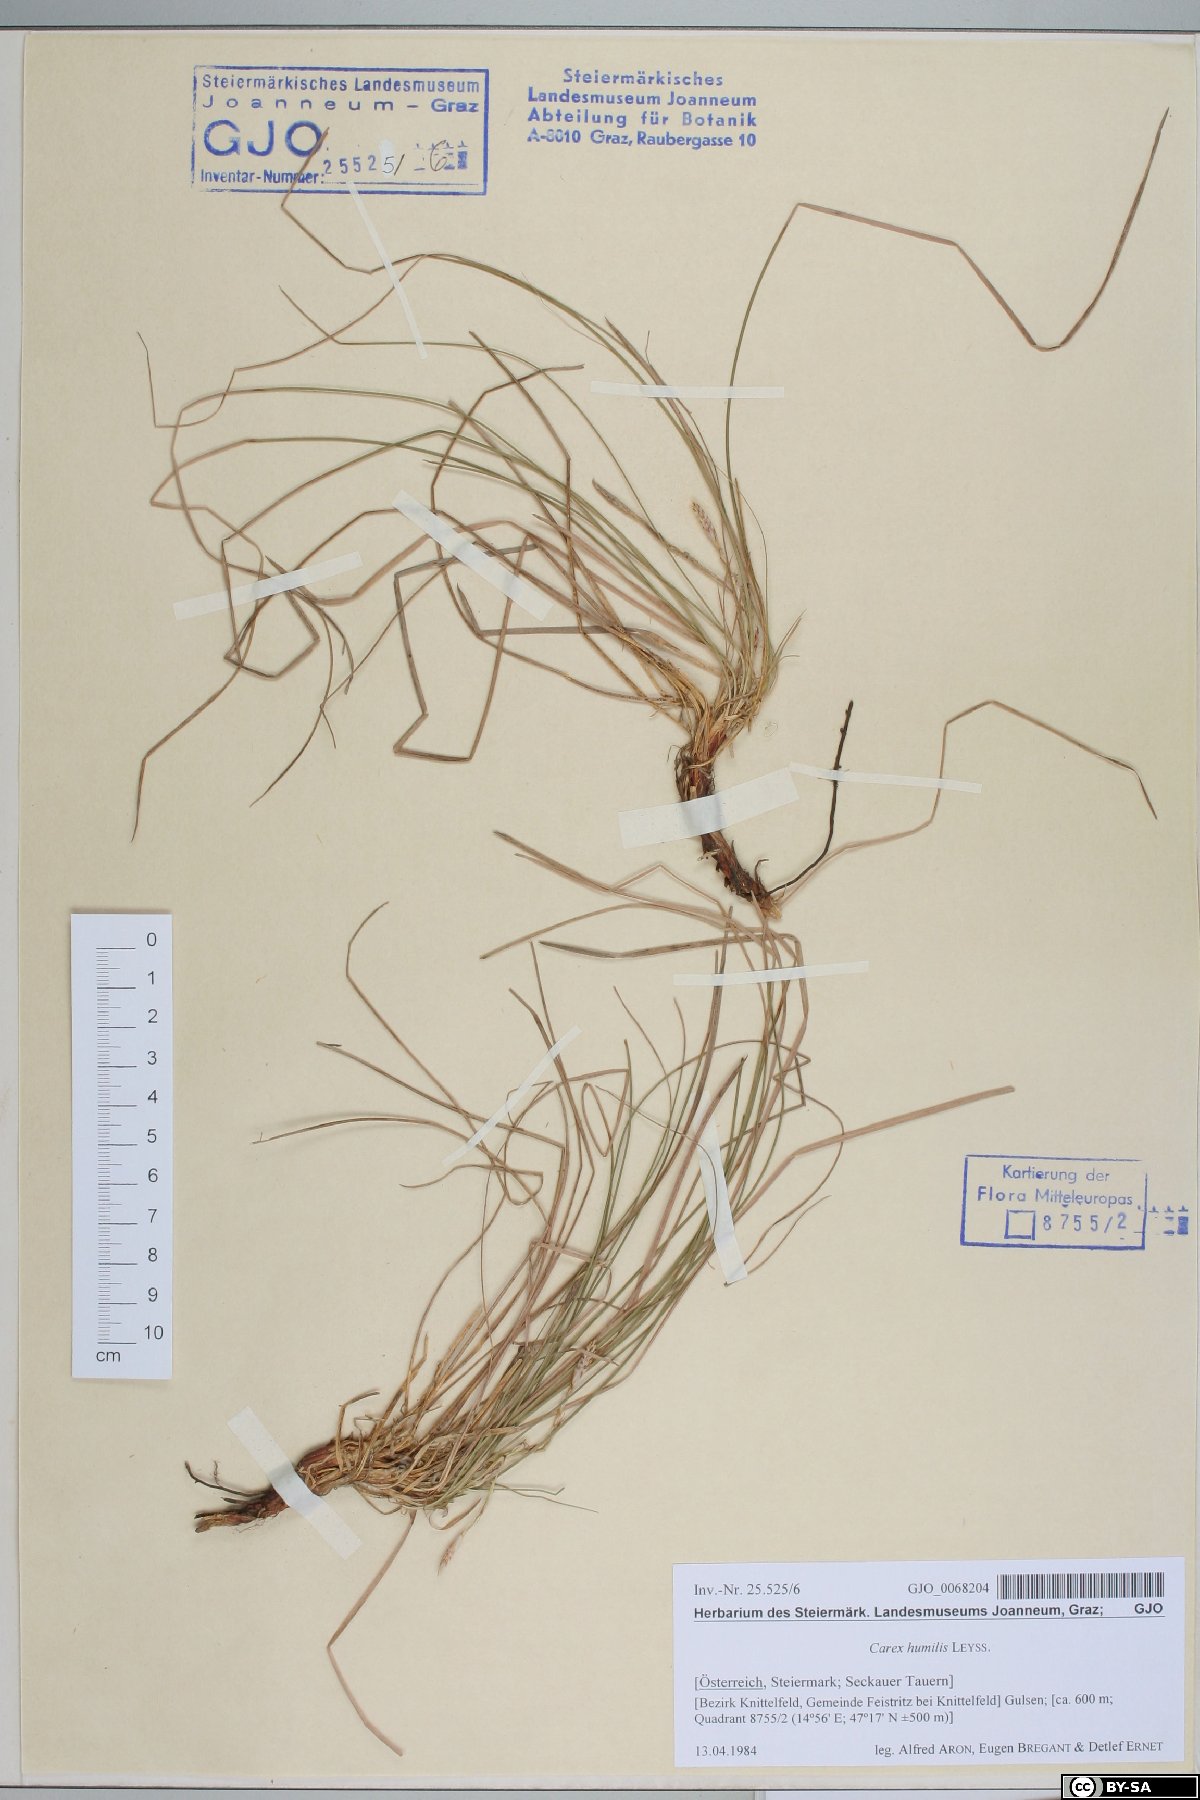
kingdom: Plantae
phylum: Tracheophyta
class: Liliopsida
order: Poales
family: Cyperaceae
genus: Carex
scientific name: Carex humilis
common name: Dwarf sedge
